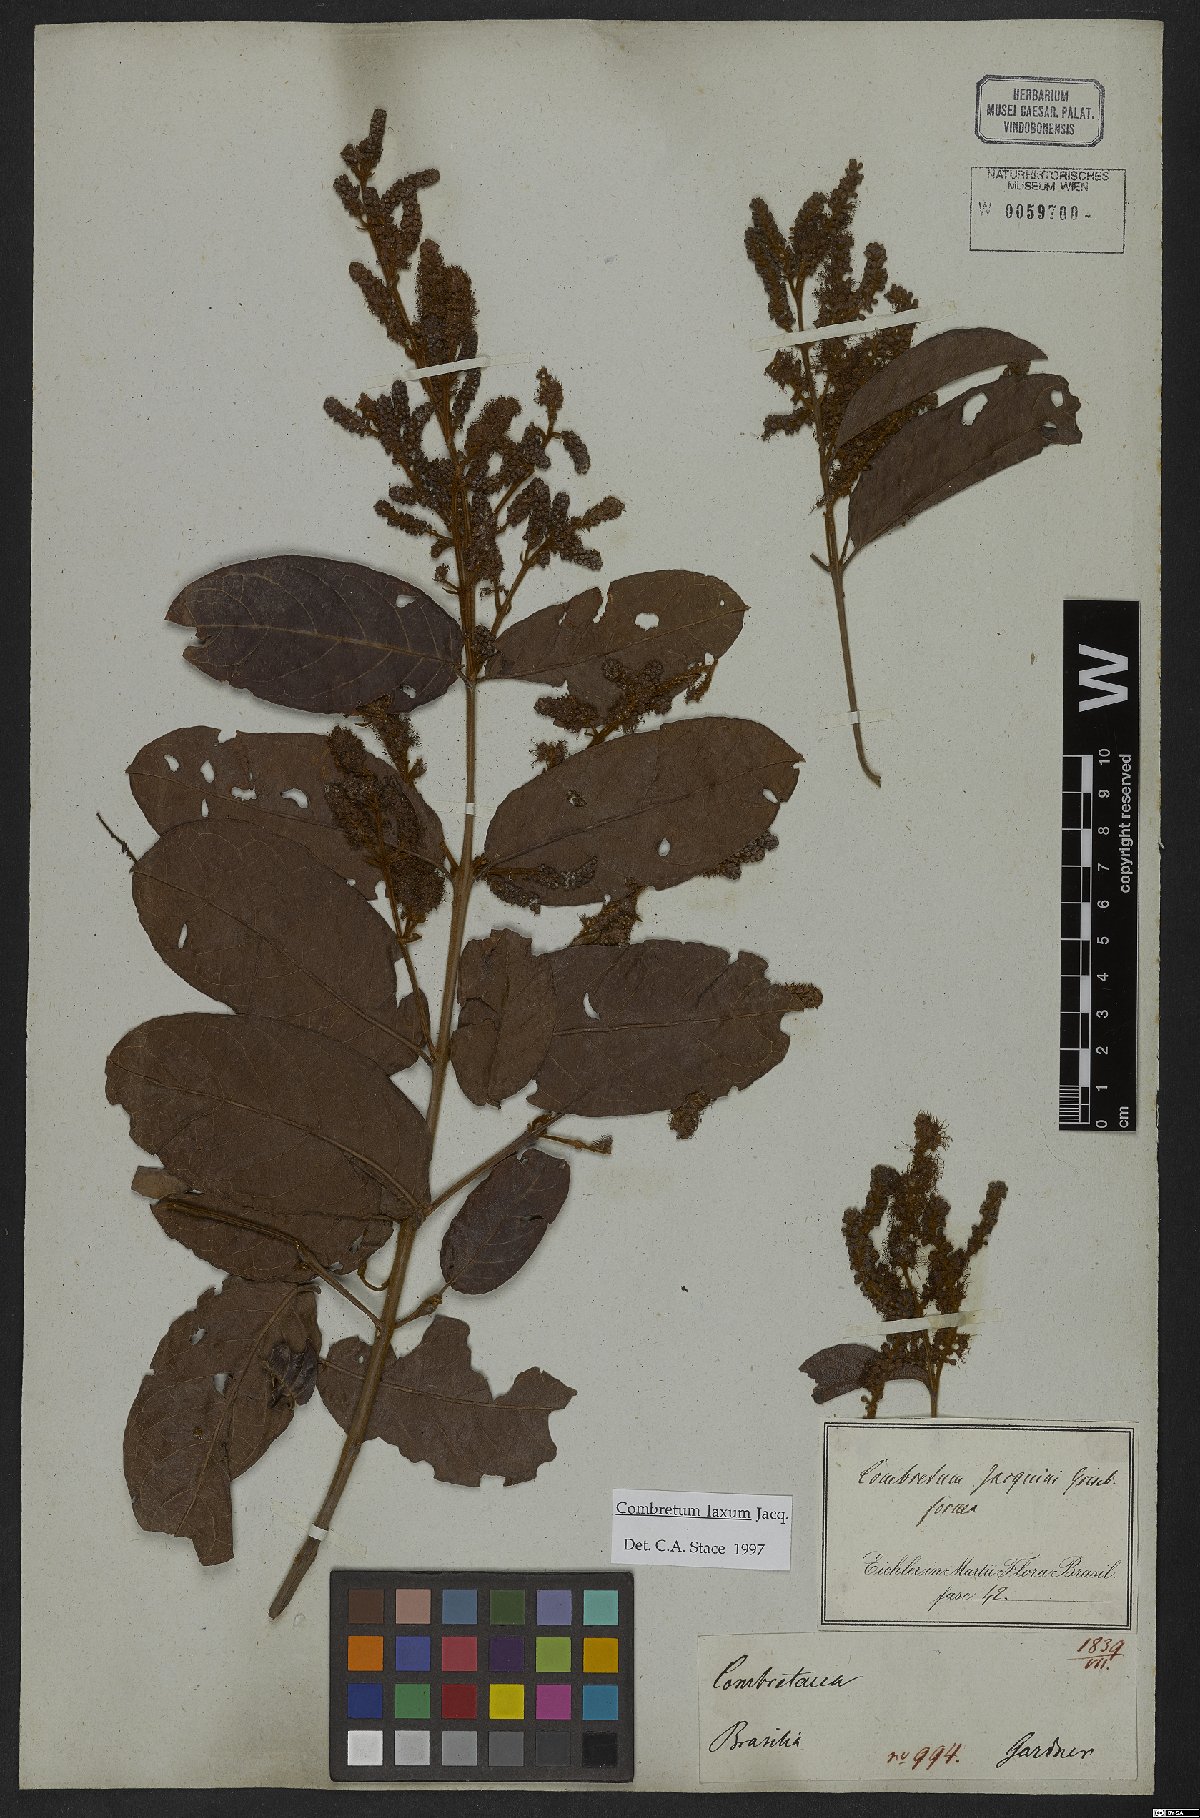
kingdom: Plantae
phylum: Tracheophyta
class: Magnoliopsida
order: Myrtales
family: Combretaceae
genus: Combretum
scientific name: Combretum laxum
